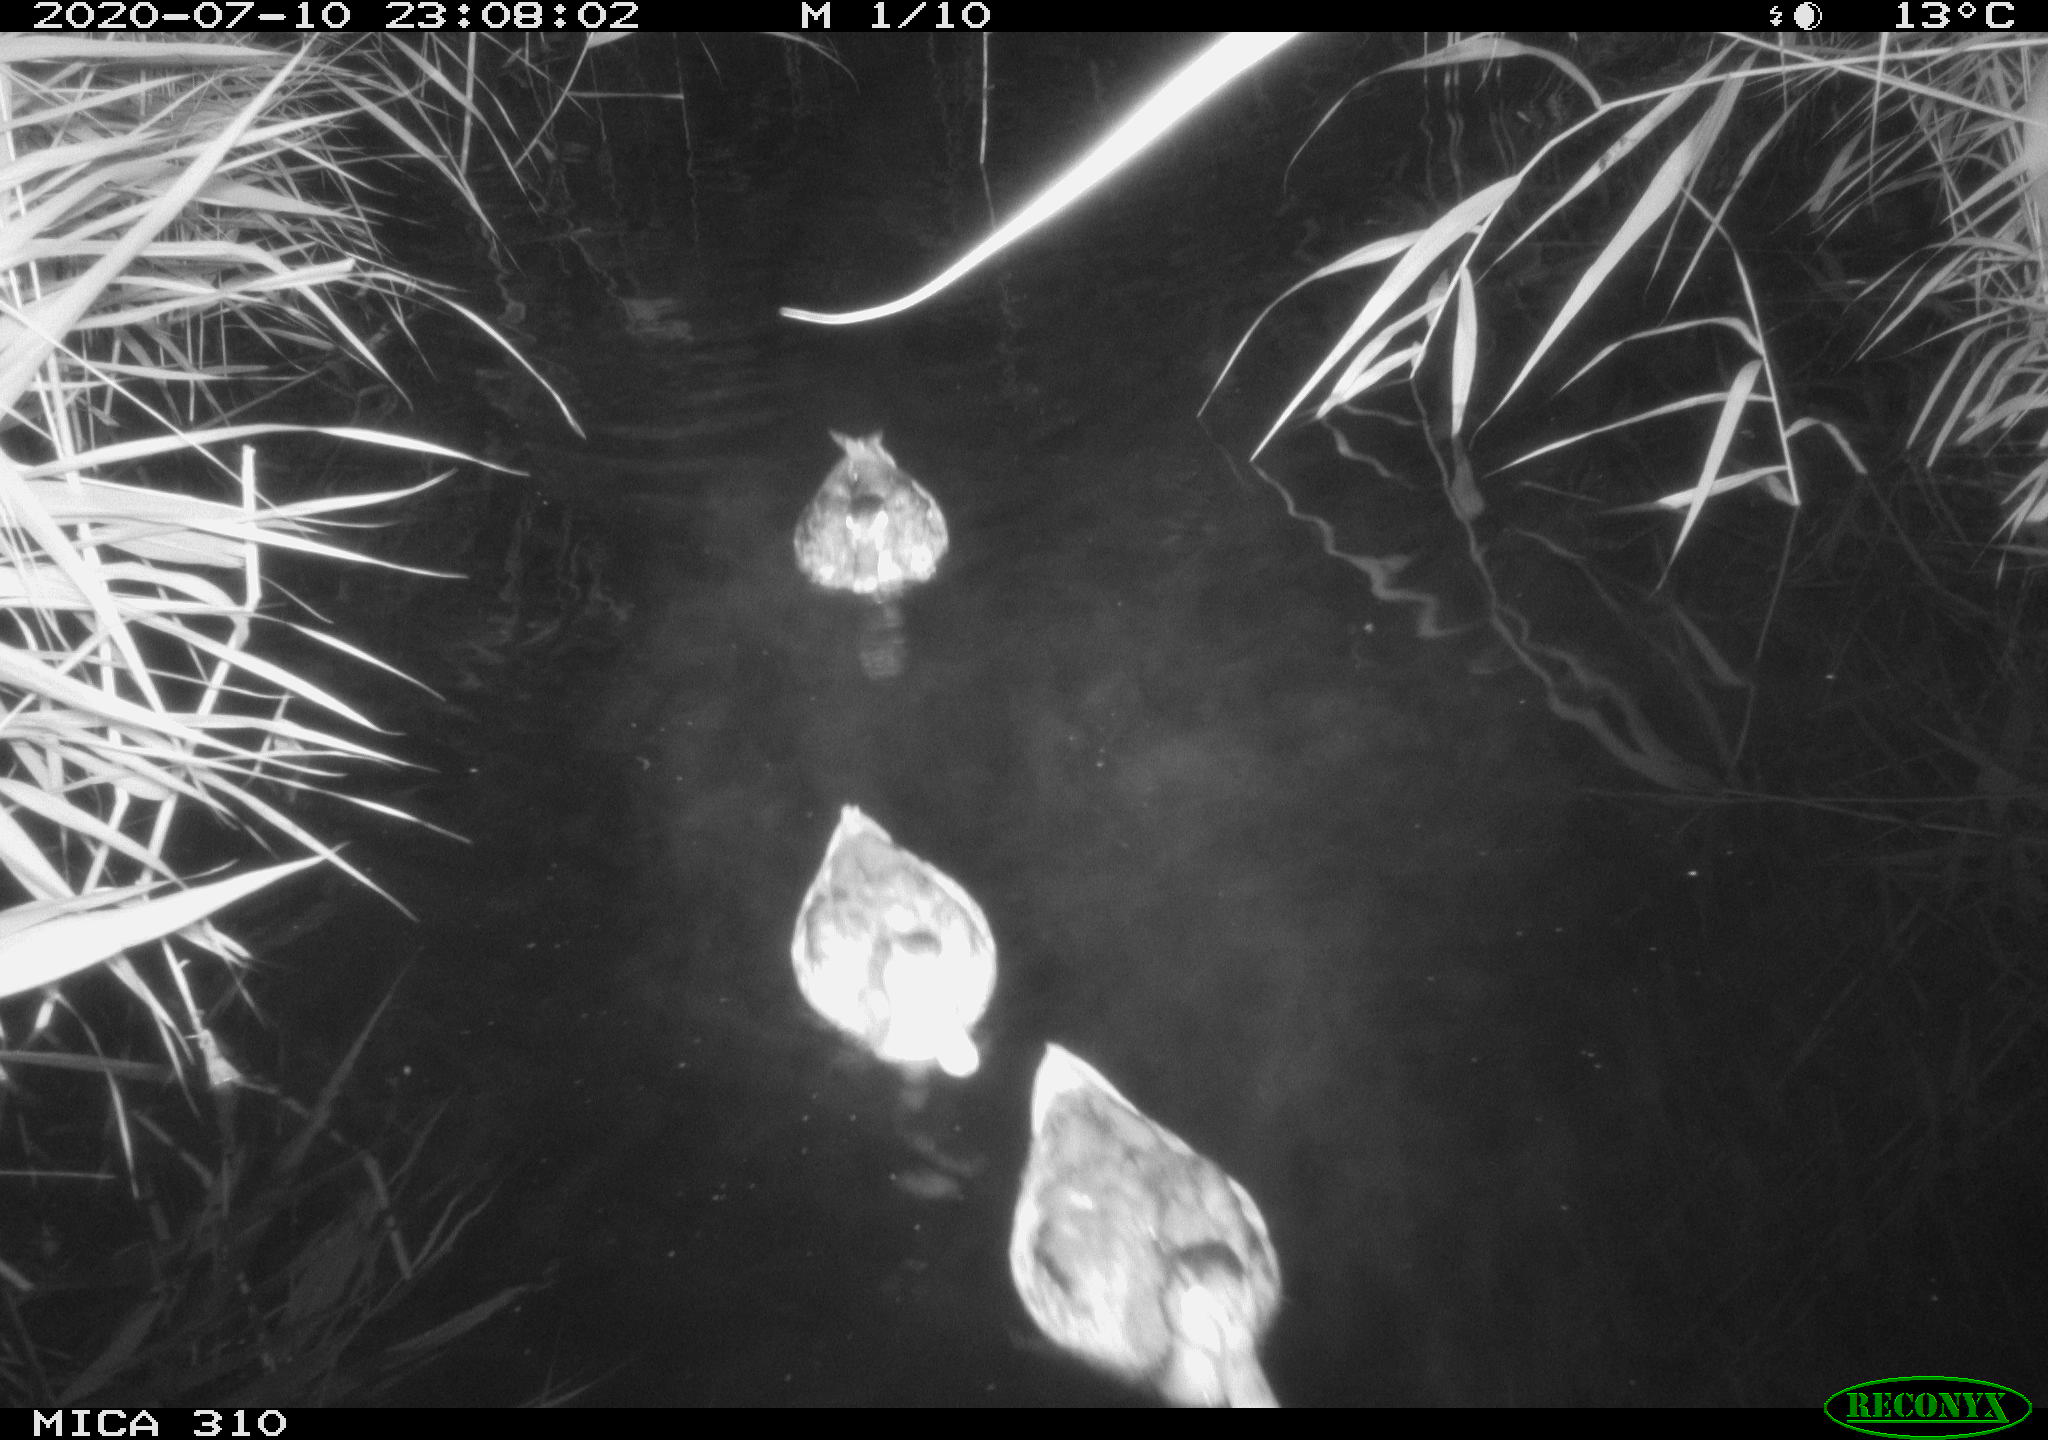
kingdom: Animalia
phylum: Chordata
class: Aves
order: Anseriformes
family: Anatidae
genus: Anas
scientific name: Anas platyrhynchos
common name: Mallard
